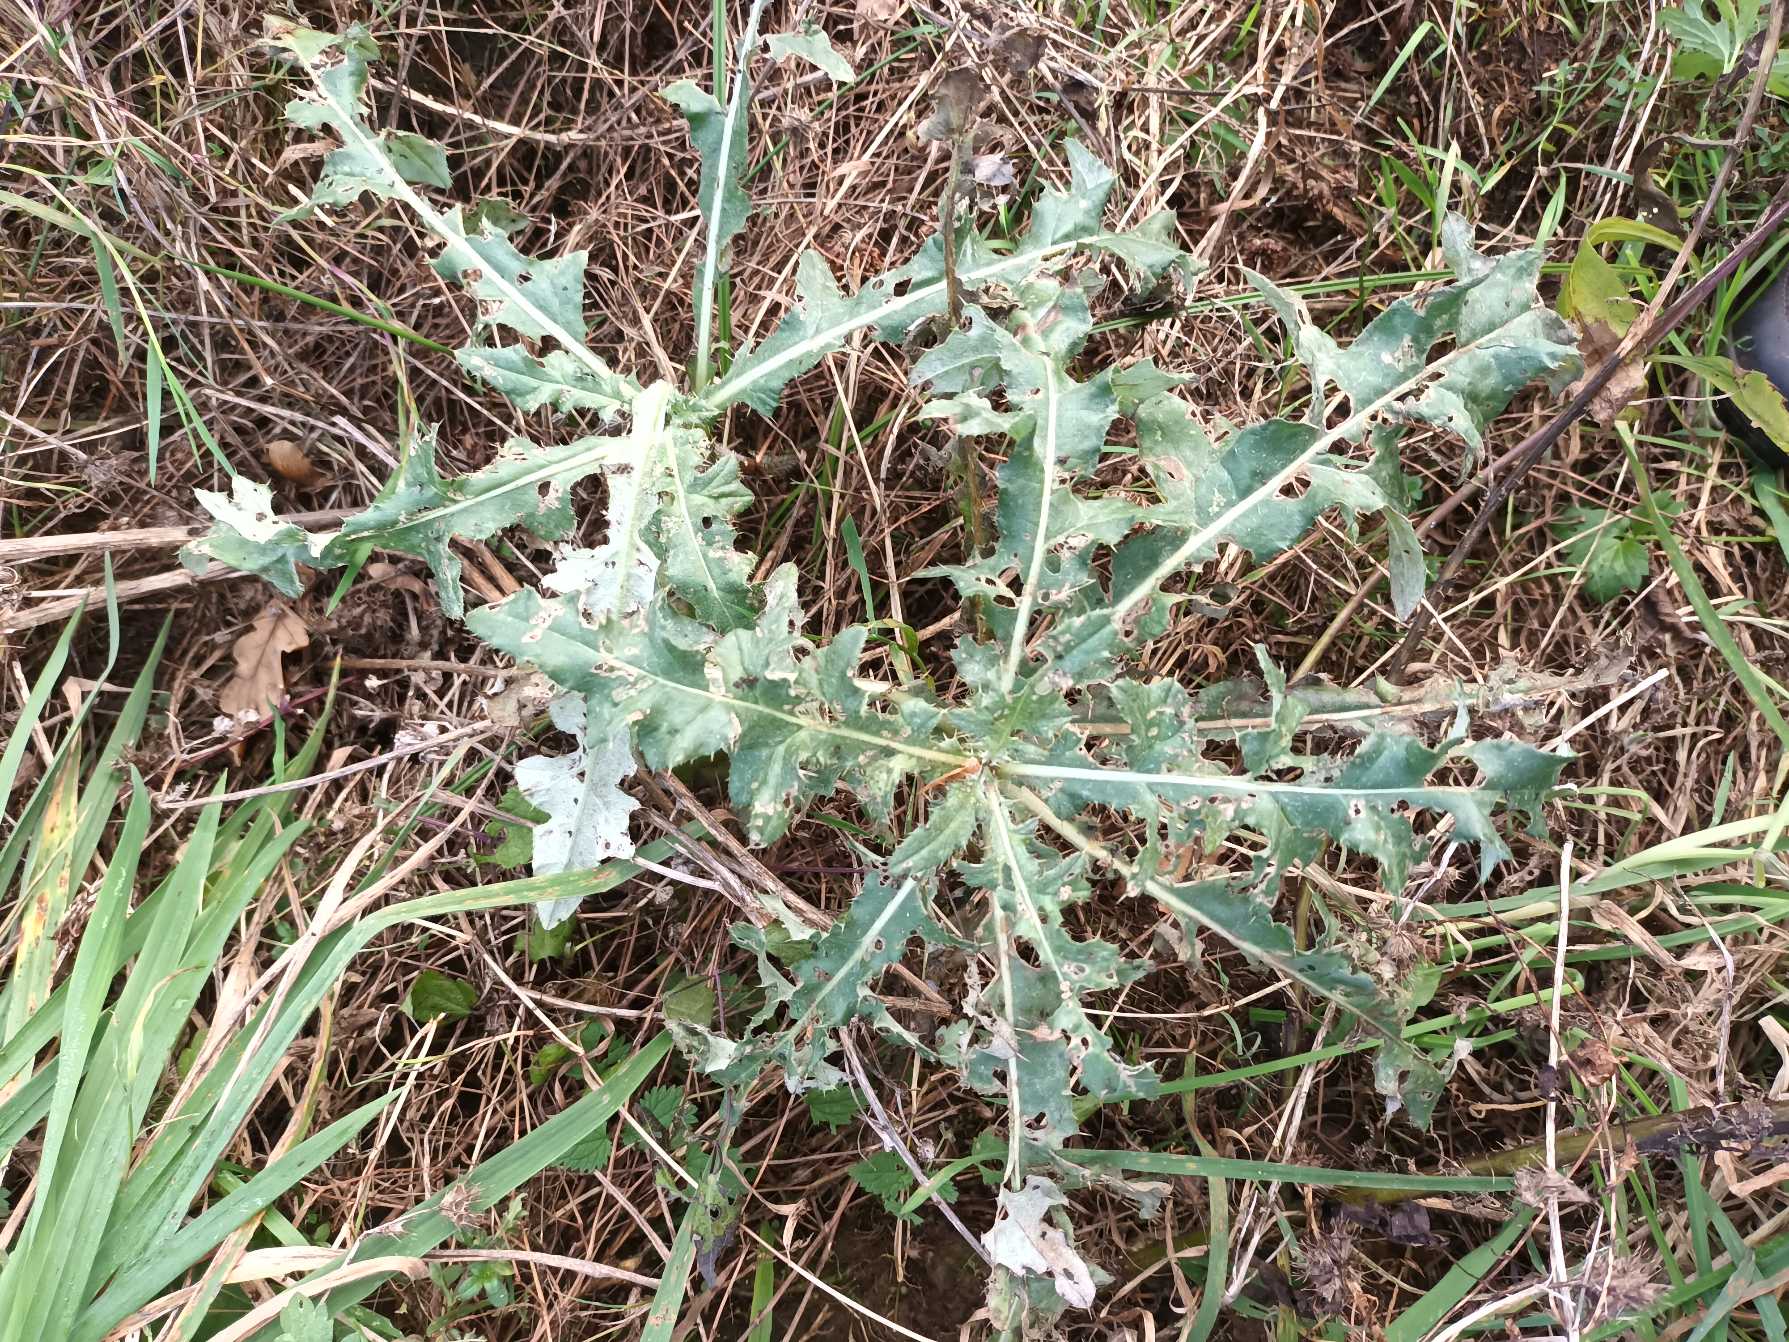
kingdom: Plantae
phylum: Tracheophyta
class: Magnoliopsida
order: Asterales
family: Asteraceae
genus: Cirsium
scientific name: Cirsium arvense
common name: Ager-tidsel
